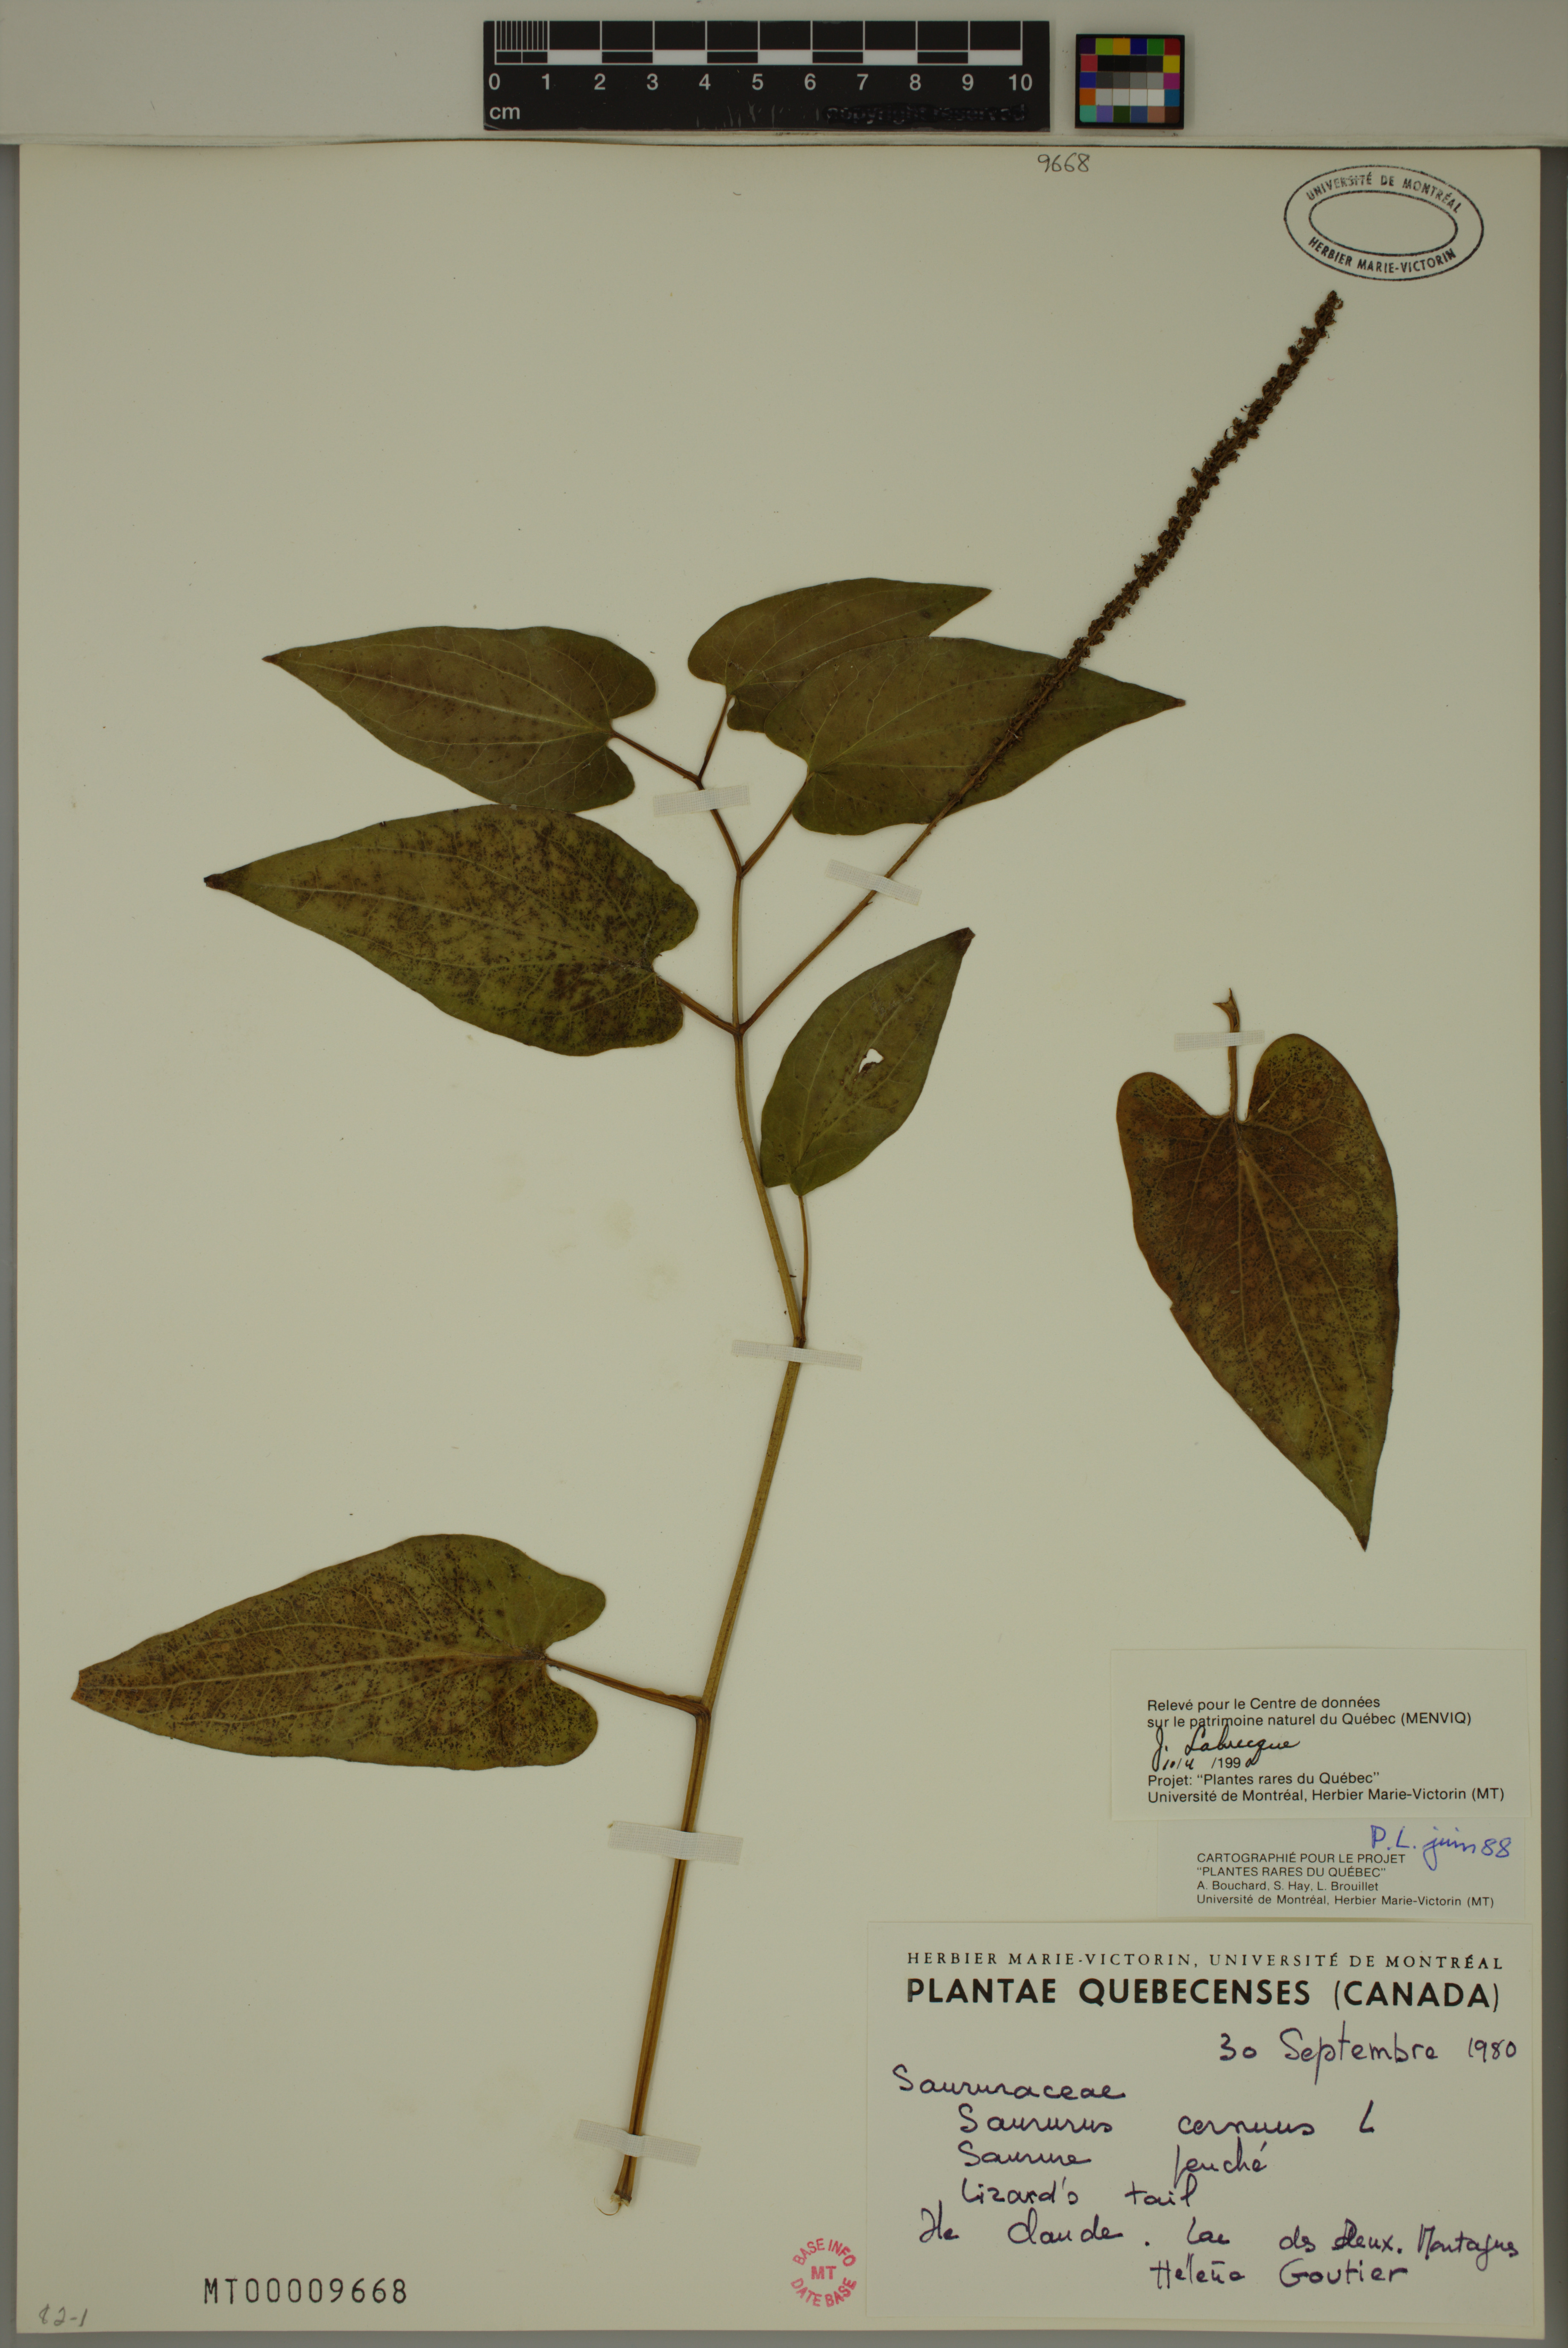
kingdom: Plantae
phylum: Tracheophyta
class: Magnoliopsida
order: Piperales
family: Saururaceae
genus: Saururus
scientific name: Saururus cernuus
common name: Lizard's-tail
